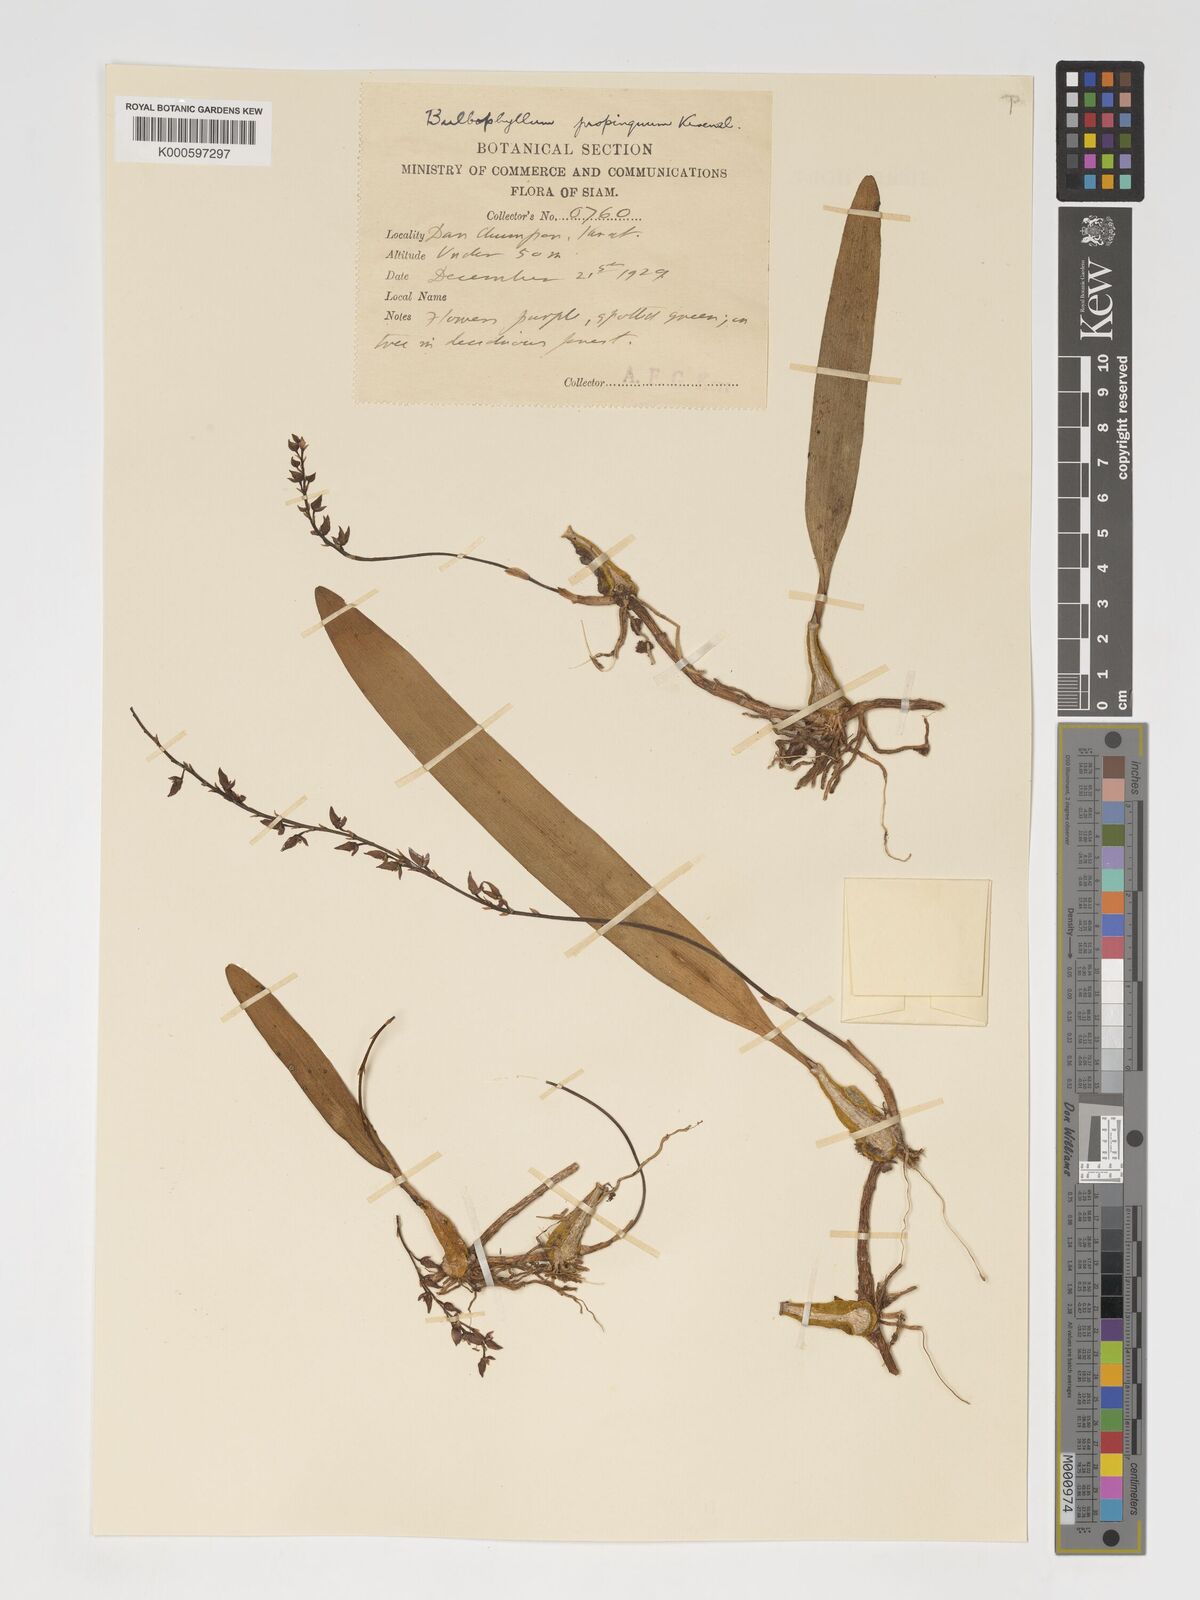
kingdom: Plantae
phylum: Tracheophyta
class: Liliopsida
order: Asparagales
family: Orchidaceae
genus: Bulbophyllum
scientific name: Bulbophyllum propinquum
